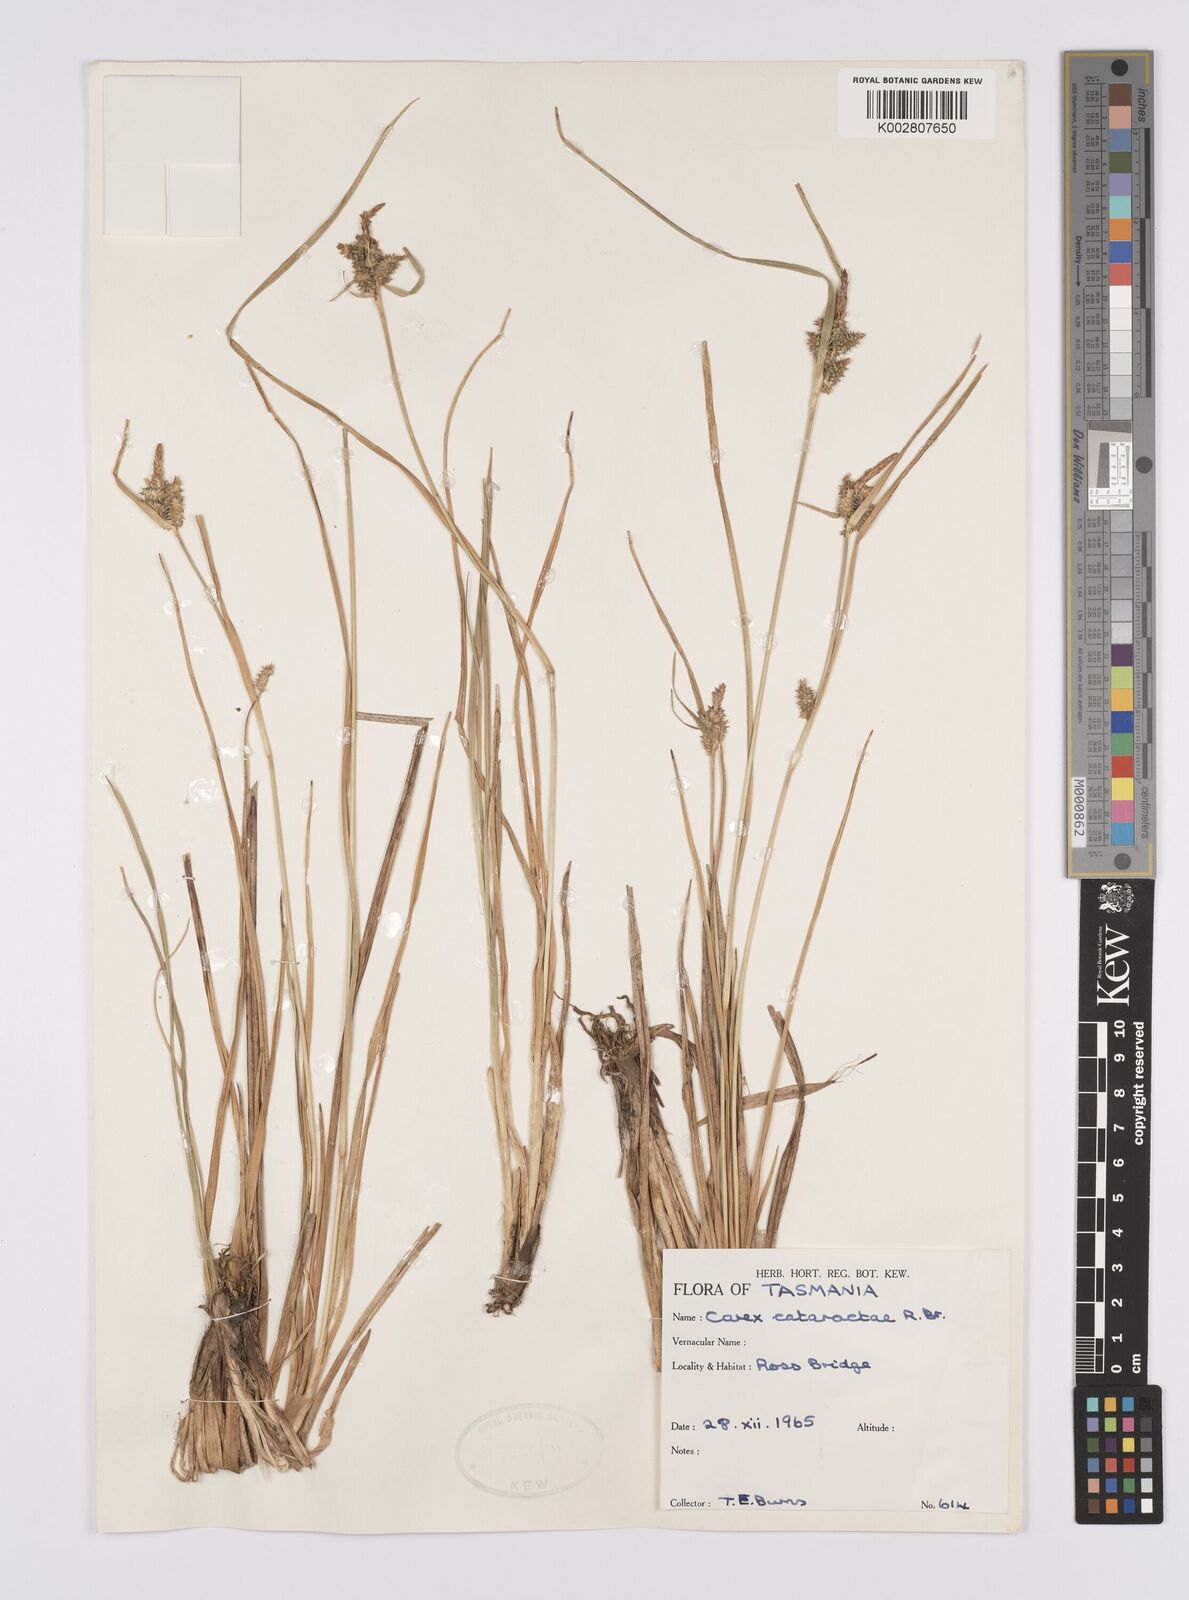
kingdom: Plantae
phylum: Tracheophyta
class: Liliopsida
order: Poales
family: Cyperaceae
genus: Carex
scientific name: Carex cataractae
